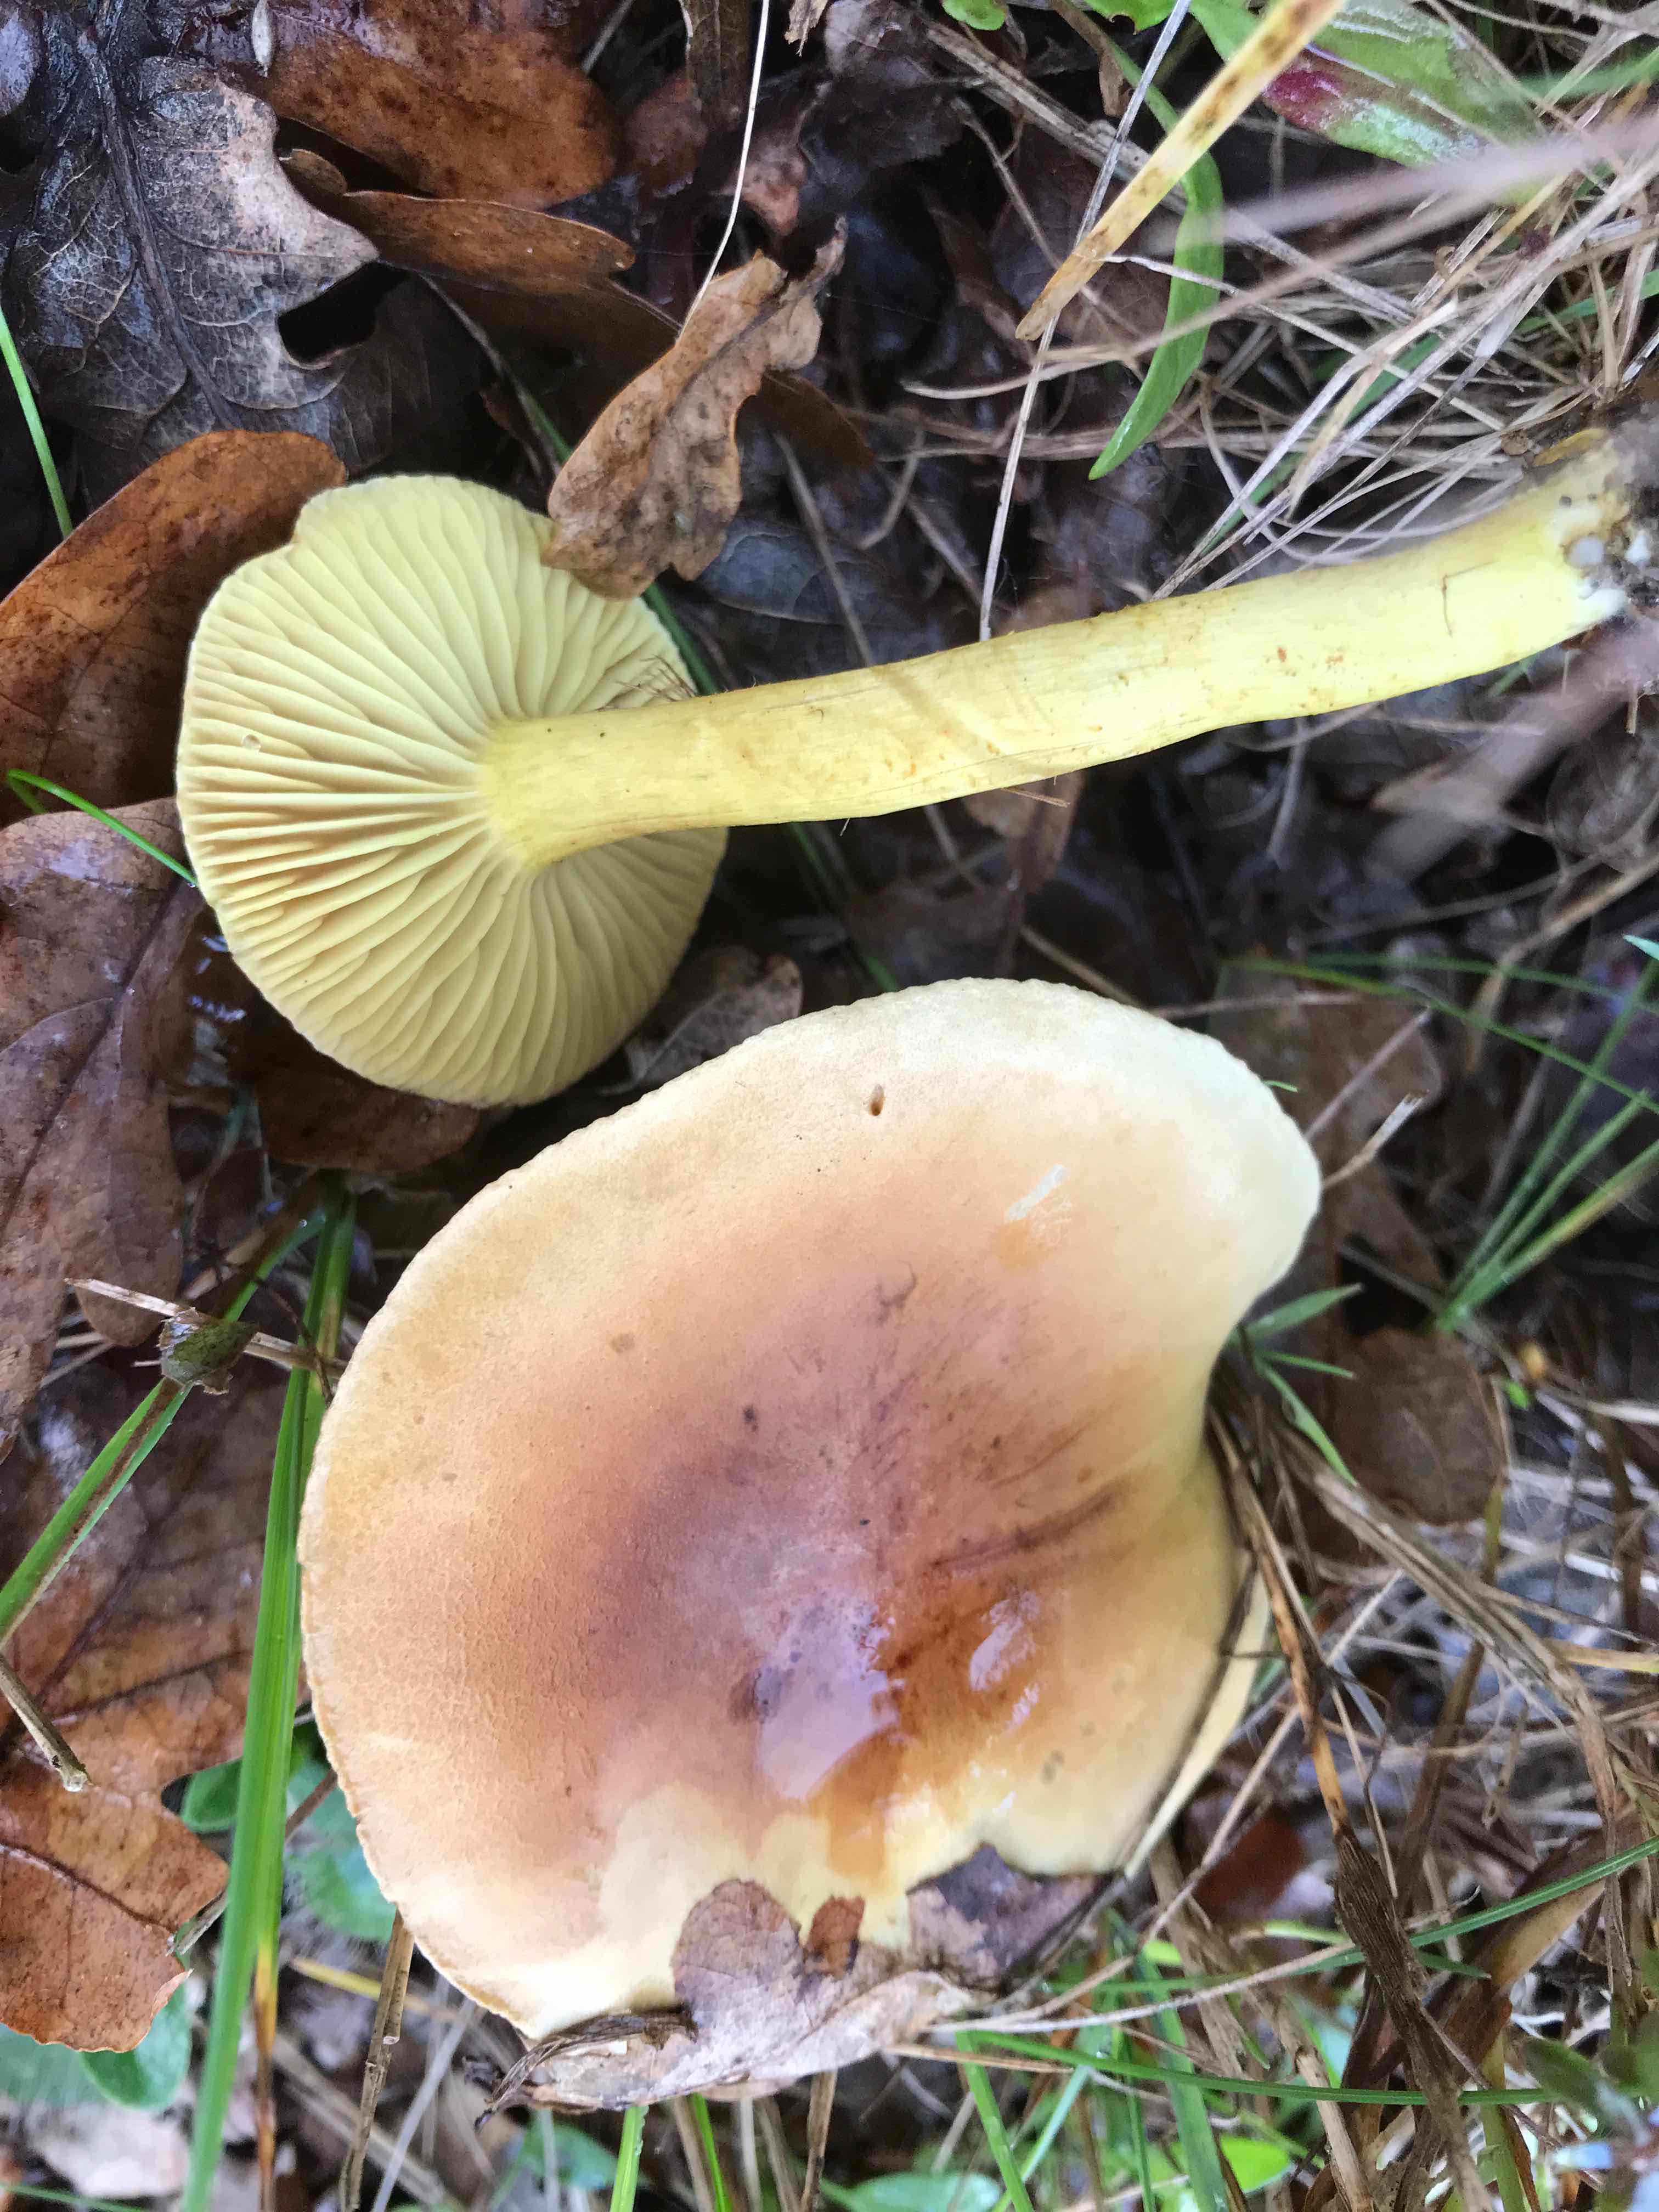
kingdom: Fungi
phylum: Basidiomycota
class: Agaricomycetes
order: Agaricales
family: Tricholomataceae
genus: Tricholoma
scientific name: Tricholoma sulphureum
